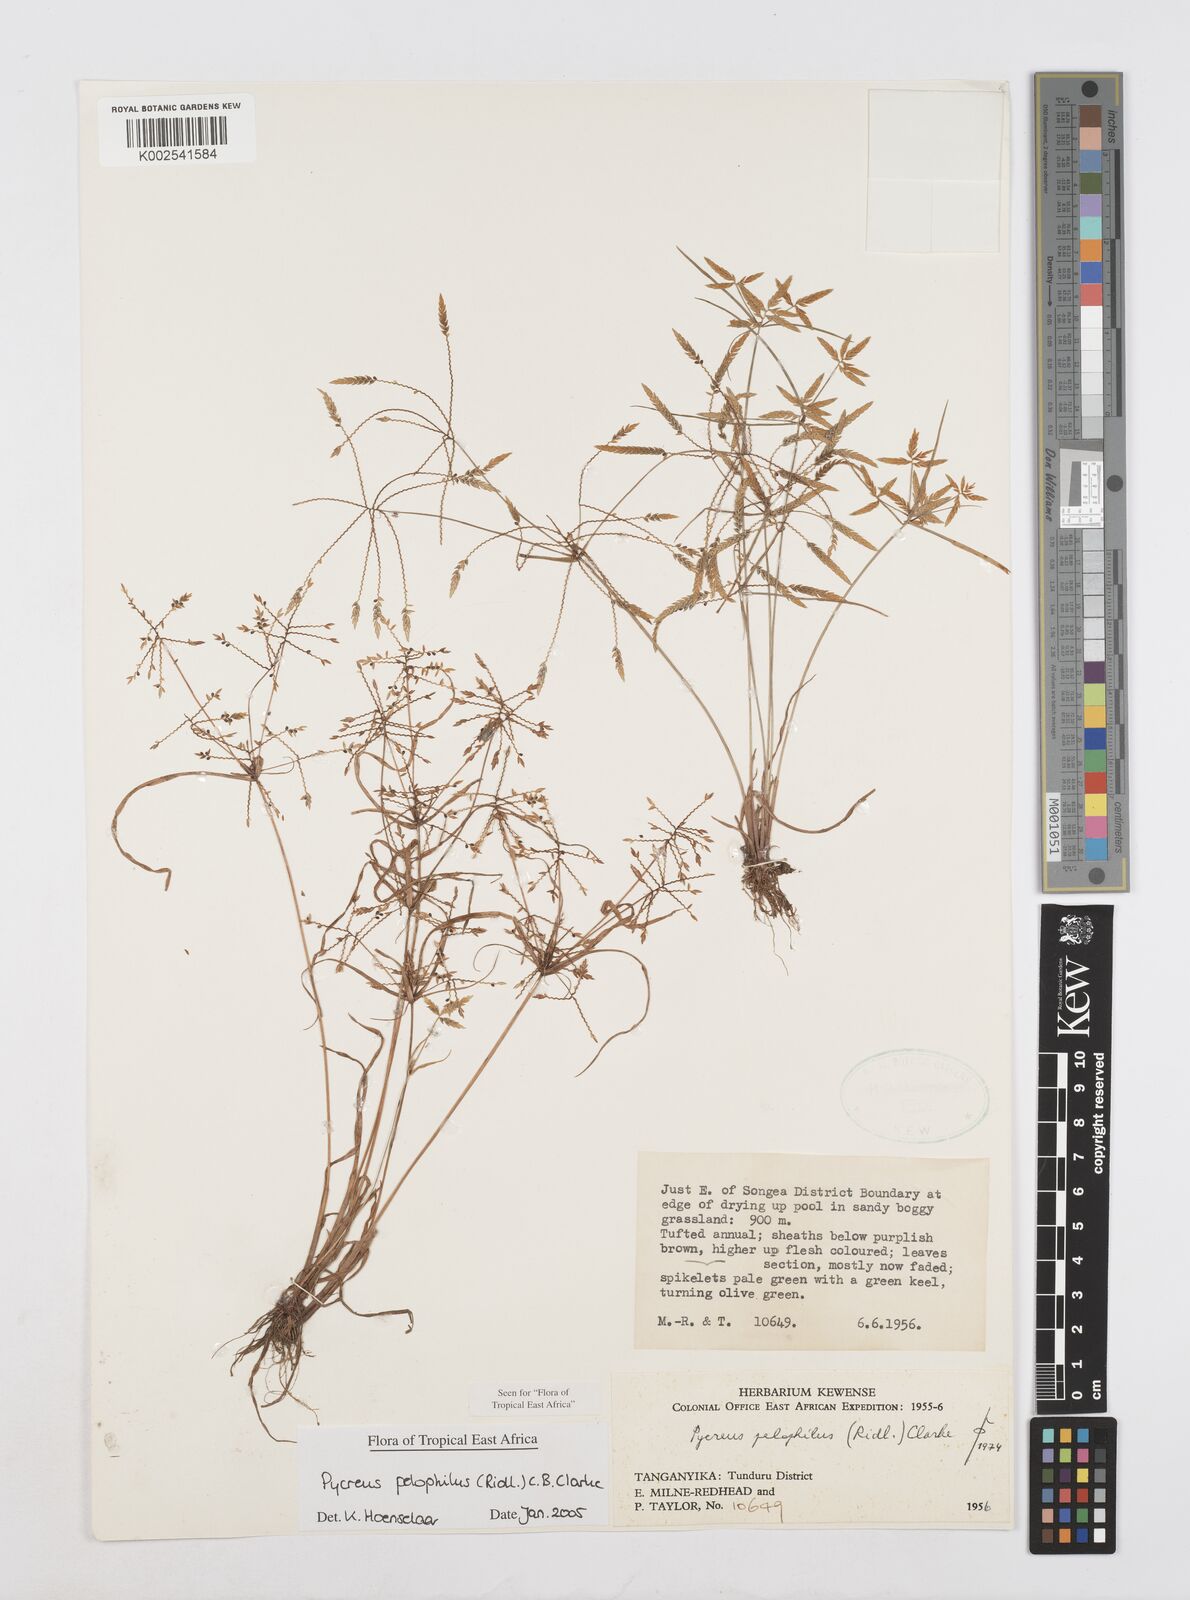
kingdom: Plantae
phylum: Tracheophyta
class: Liliopsida
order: Poales
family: Cyperaceae
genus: Cyperus
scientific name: Cyperus pelophilus
